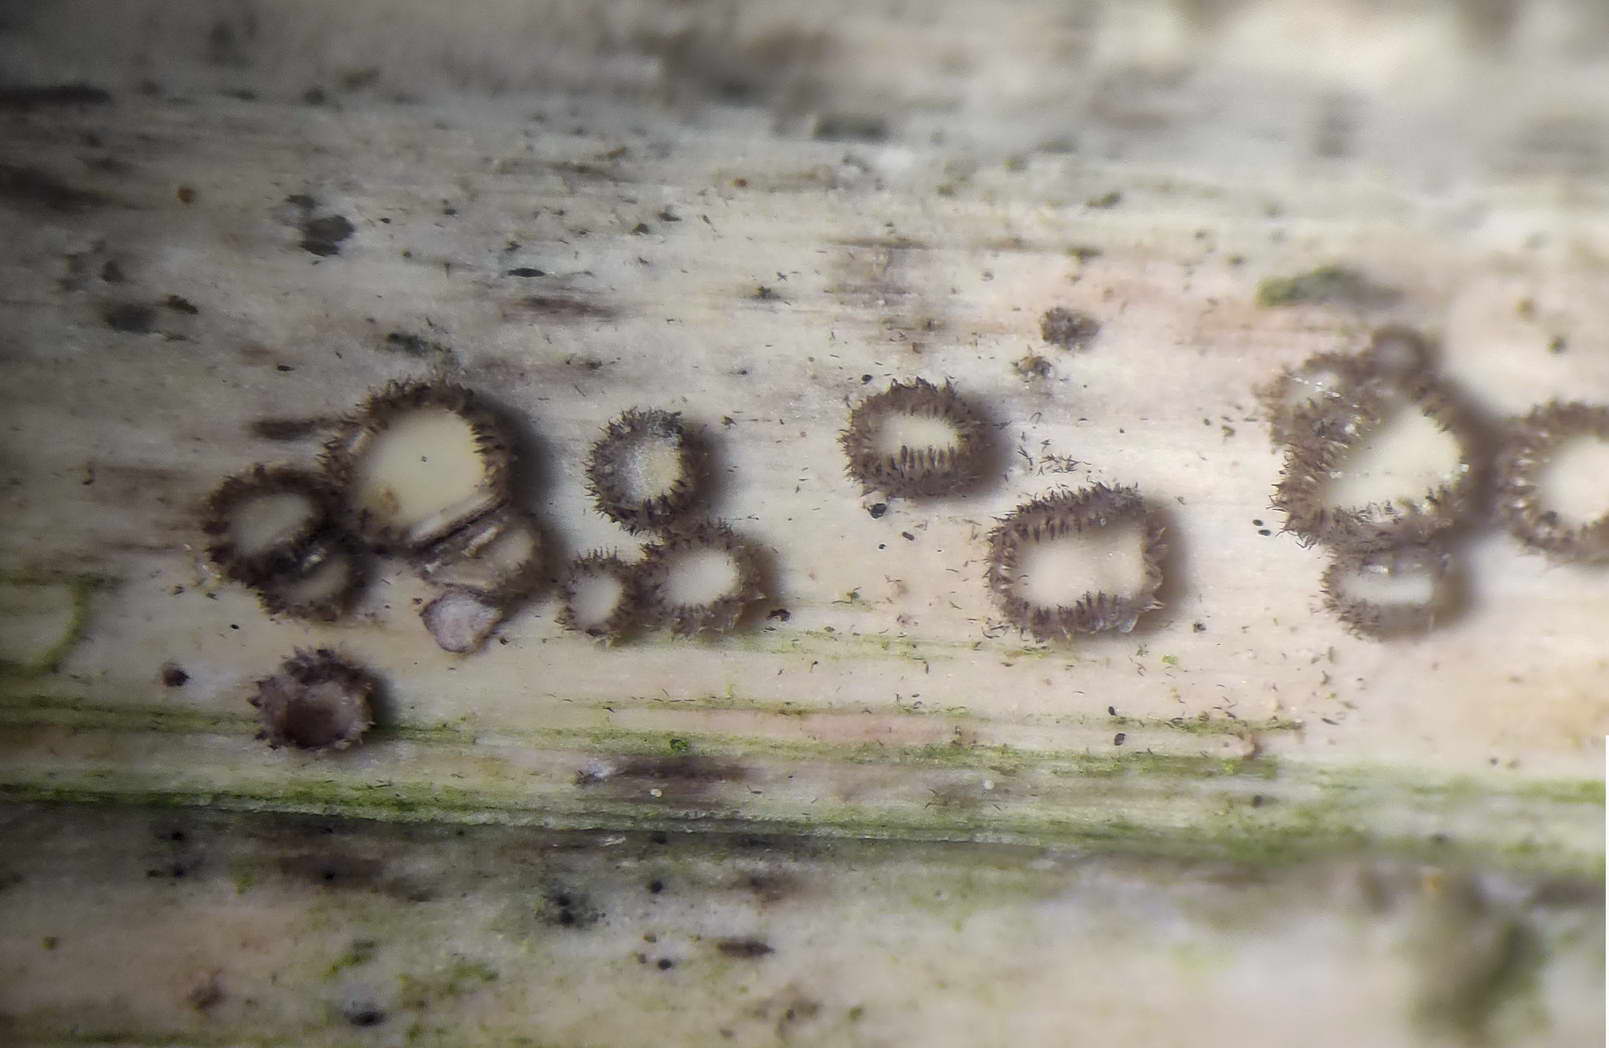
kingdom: Fungi
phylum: Ascomycota
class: Leotiomycetes
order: Helotiales
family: Lachnaceae
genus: Lachnum
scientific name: Lachnum sulphureum
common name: svovlhåret frynseskive
